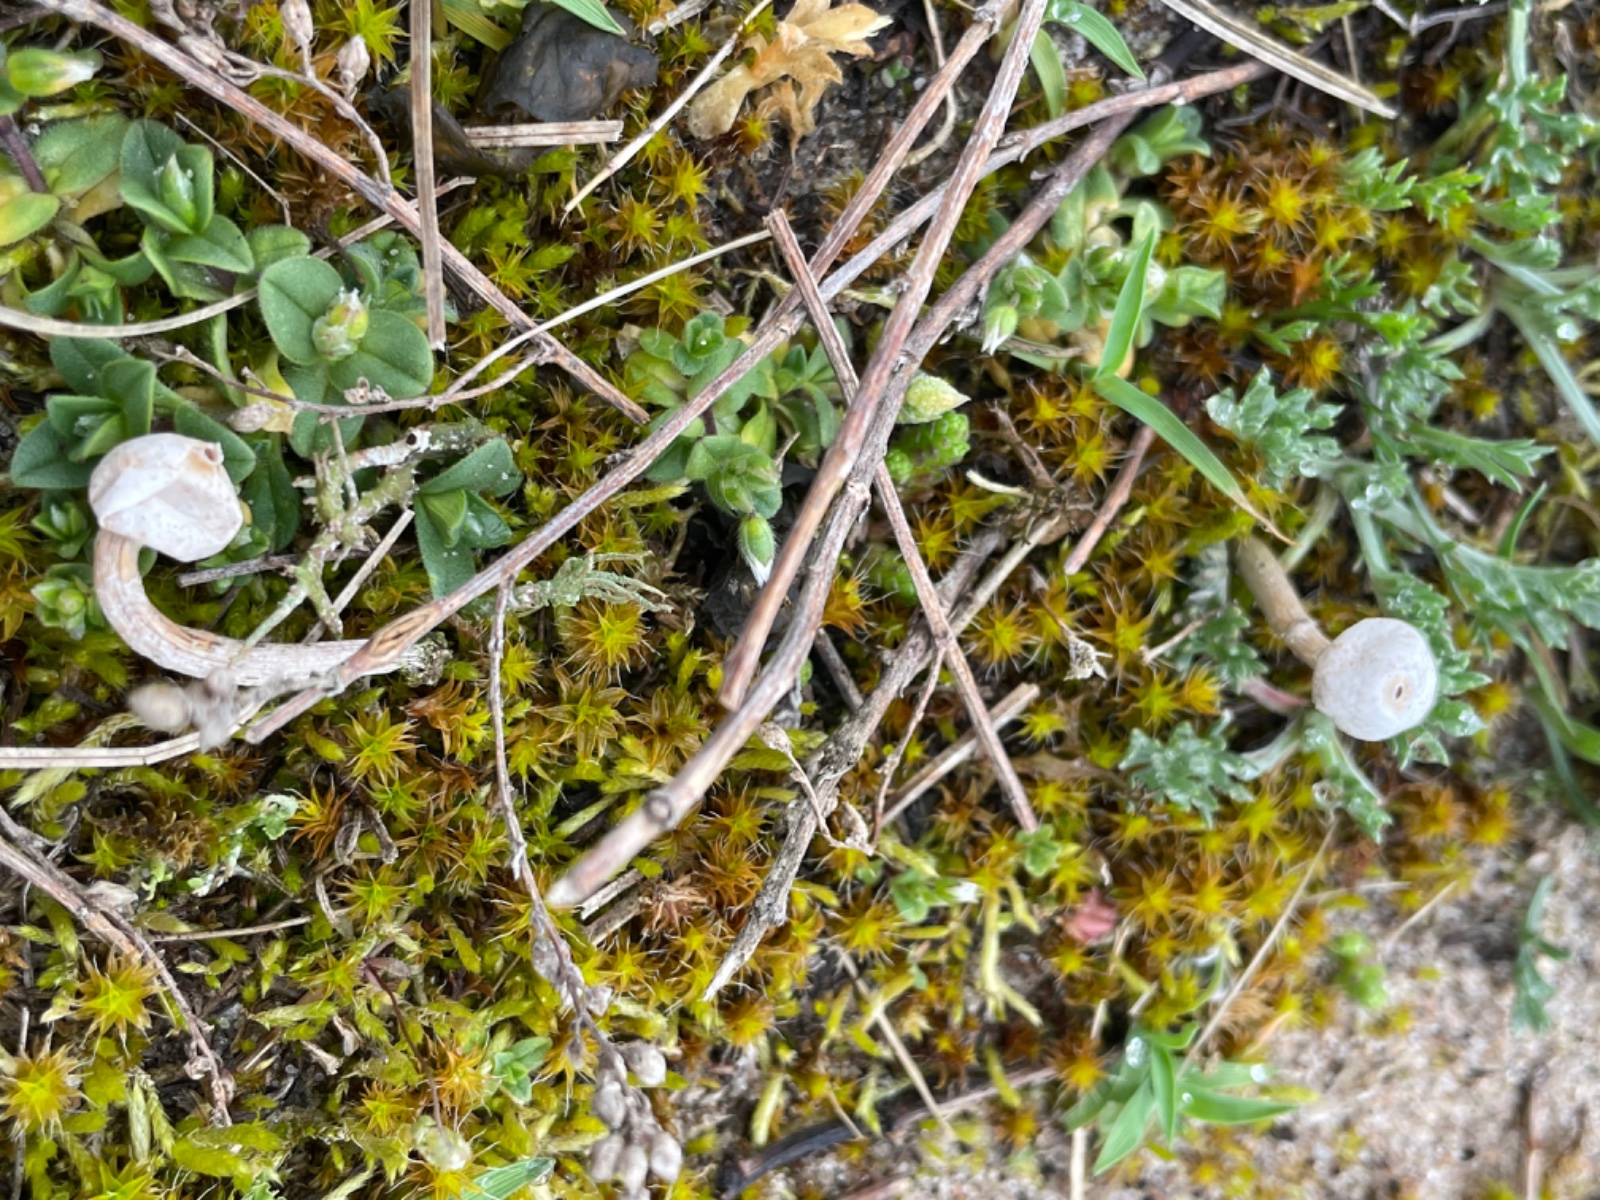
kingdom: Fungi
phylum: Basidiomycota
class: Agaricomycetes
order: Agaricales
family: Agaricaceae
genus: Tulostoma
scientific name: Tulostoma brumale
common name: vinter-stilkbovist
